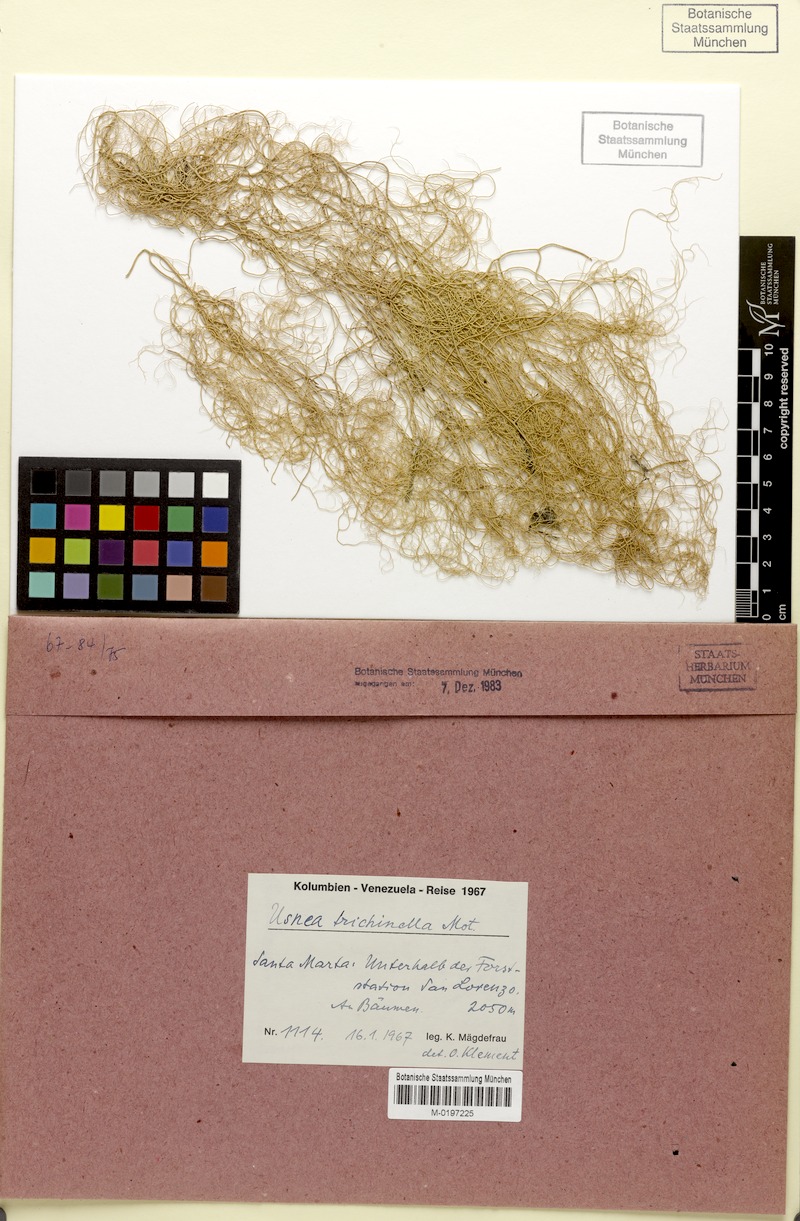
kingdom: Fungi
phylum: Ascomycota
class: Lecanoromycetes
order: Lecanorales
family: Parmeliaceae
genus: Usnea
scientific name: Usnea
